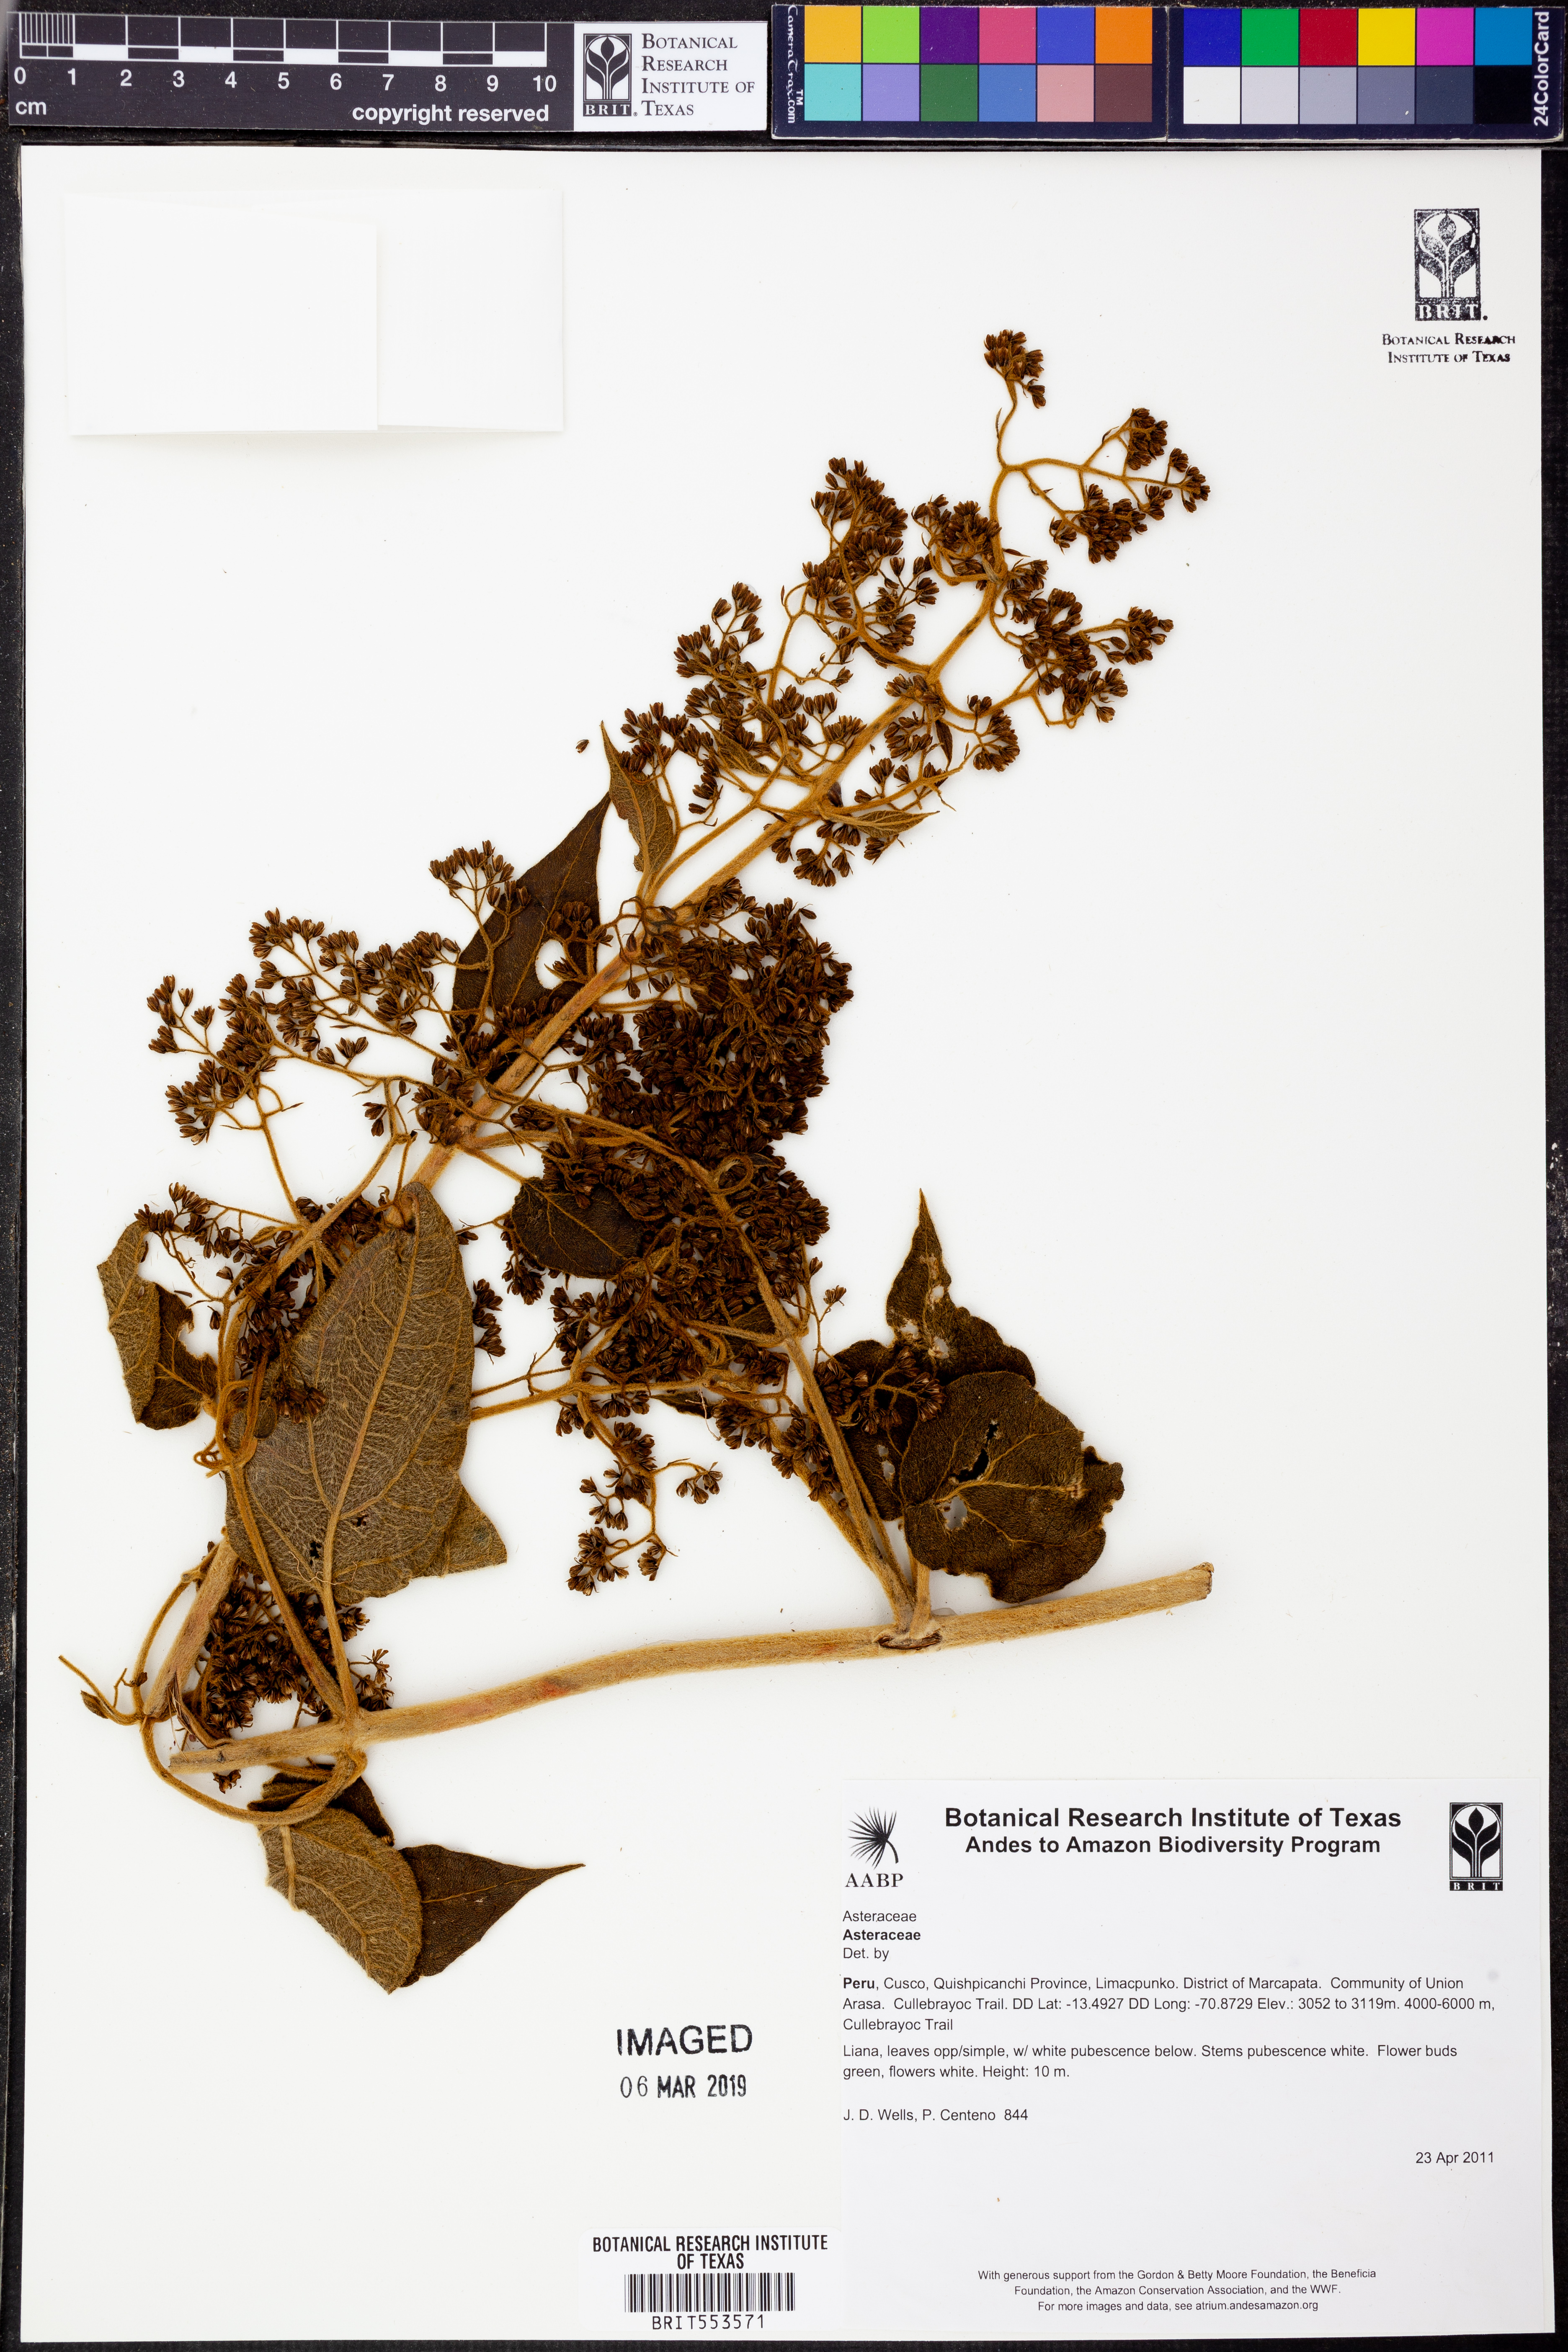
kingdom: Plantae
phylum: Tracheophyta
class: Magnoliopsida
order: Asterales
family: Asteraceae
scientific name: Asteraceae
